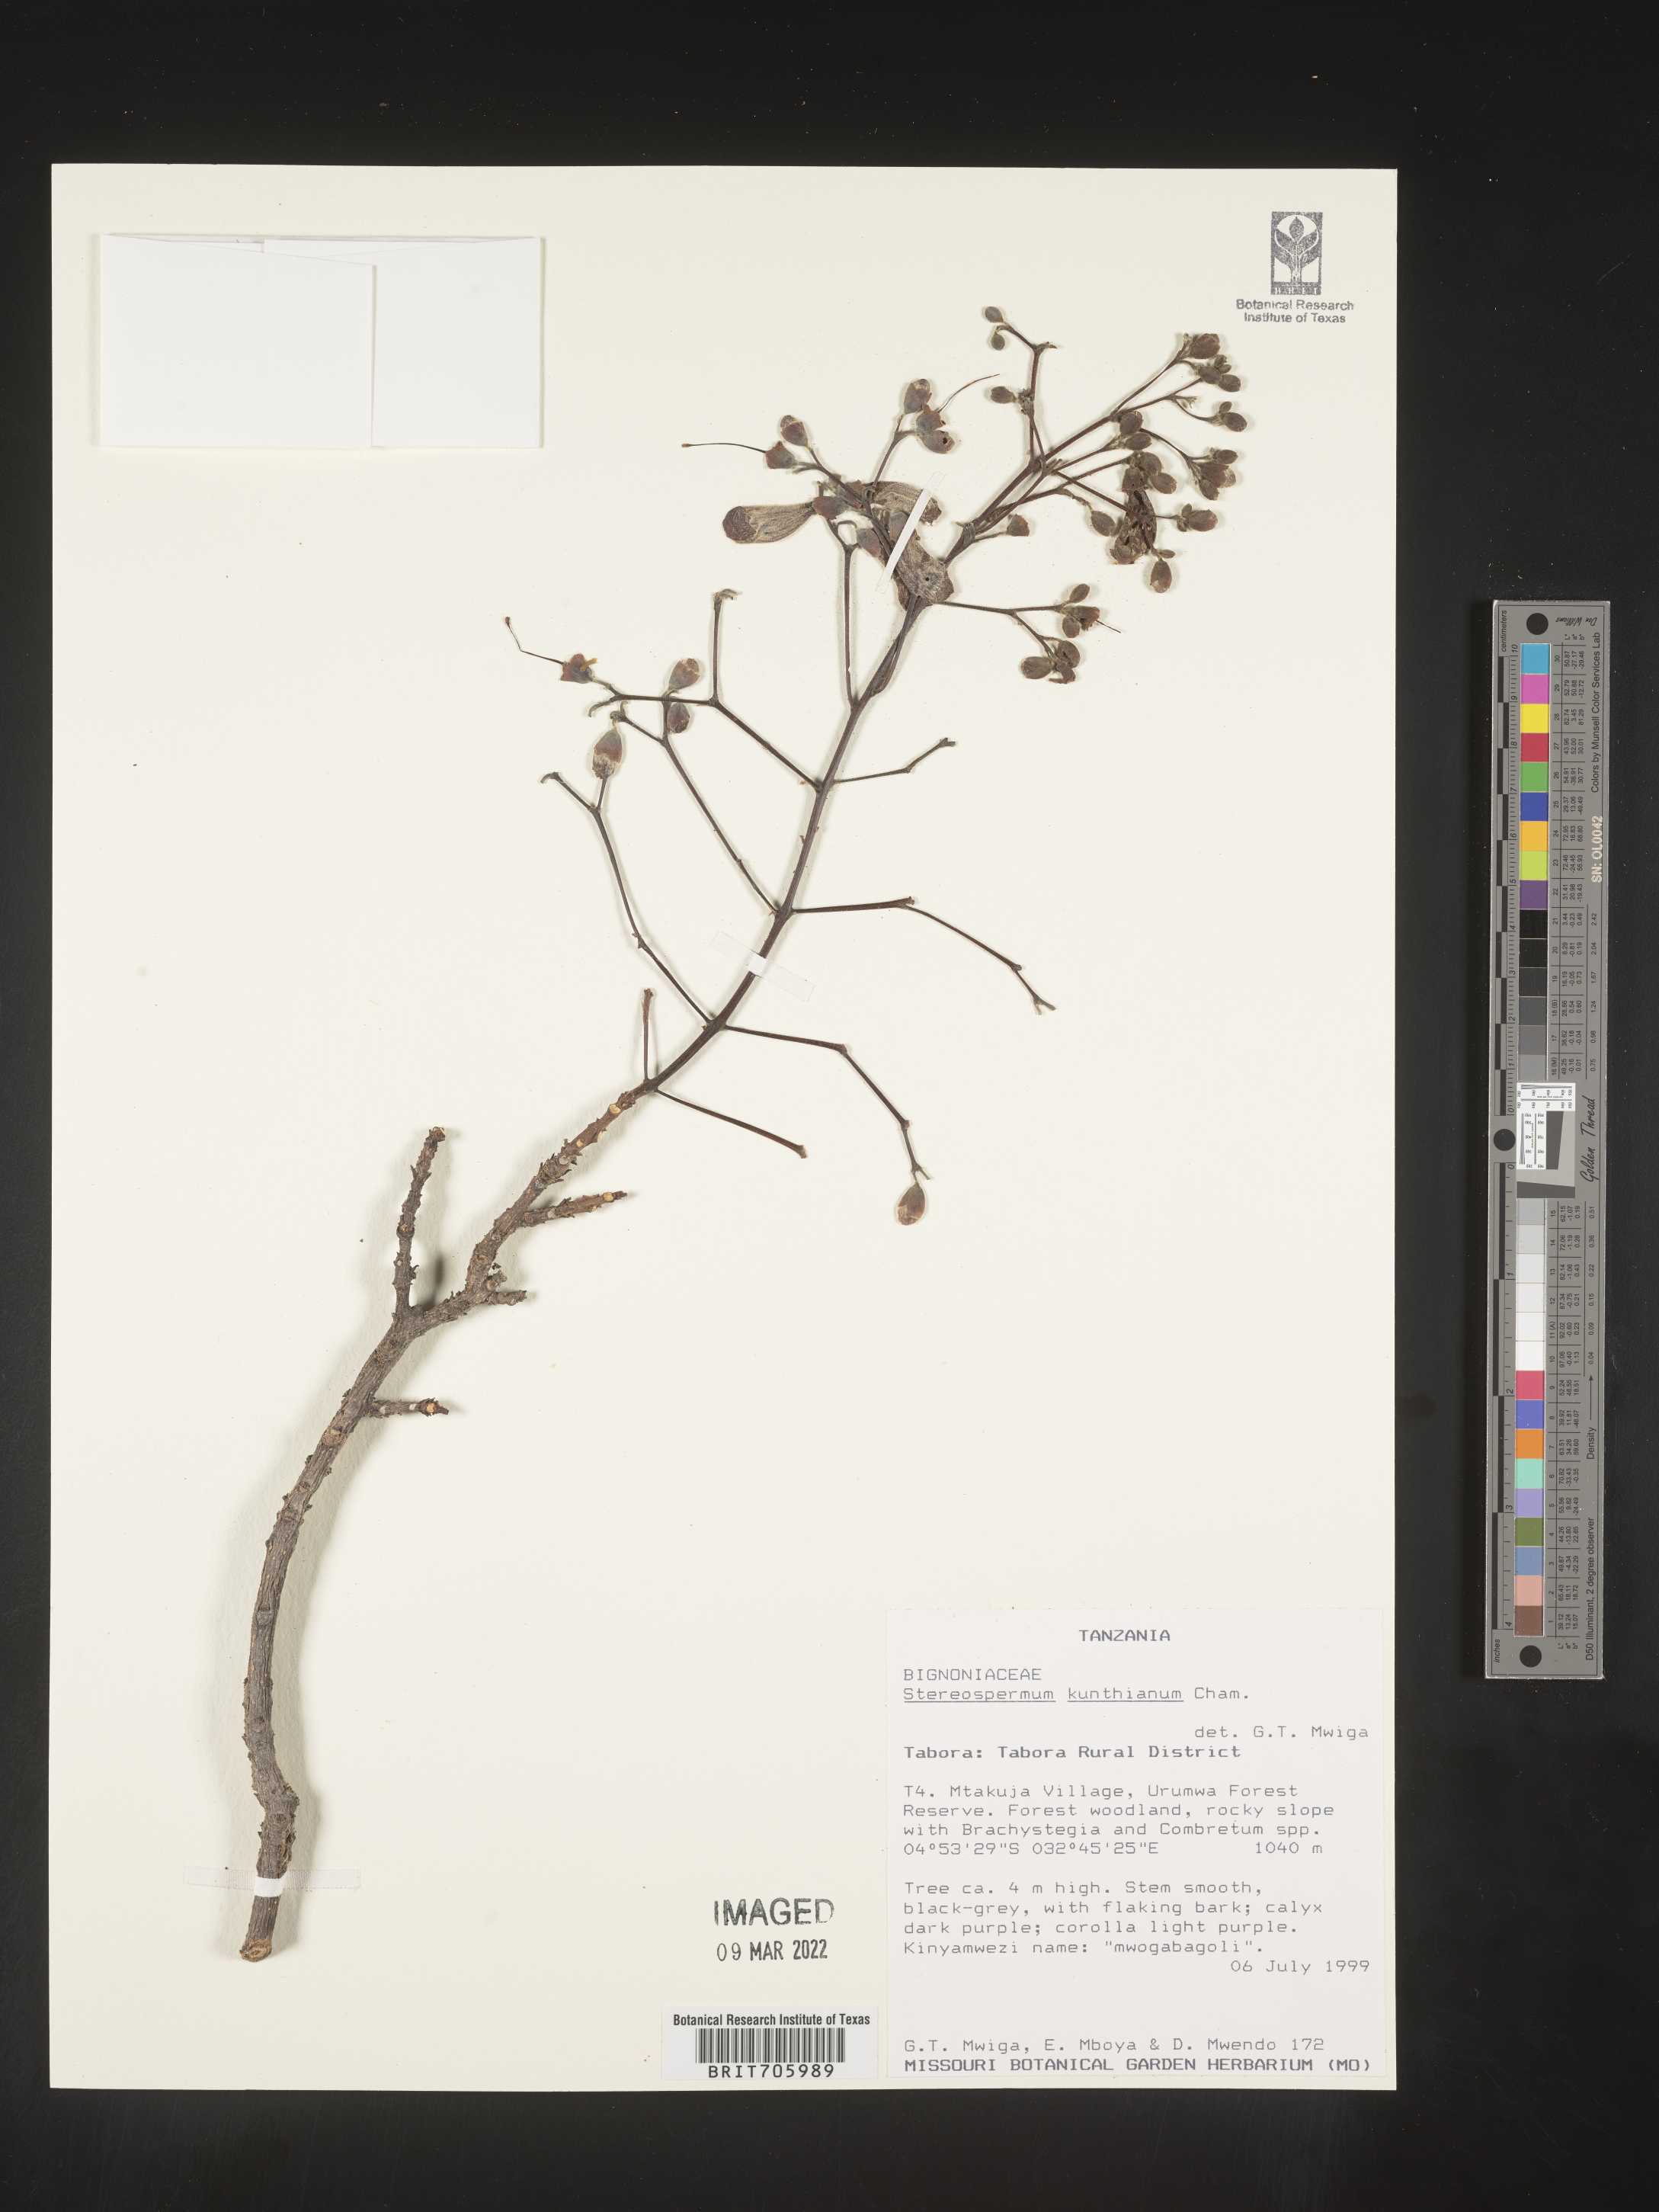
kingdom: Plantae
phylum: Tracheophyta
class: Magnoliopsida
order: Lamiales
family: Bignoniaceae
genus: Stereospermum
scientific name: Stereospermum
